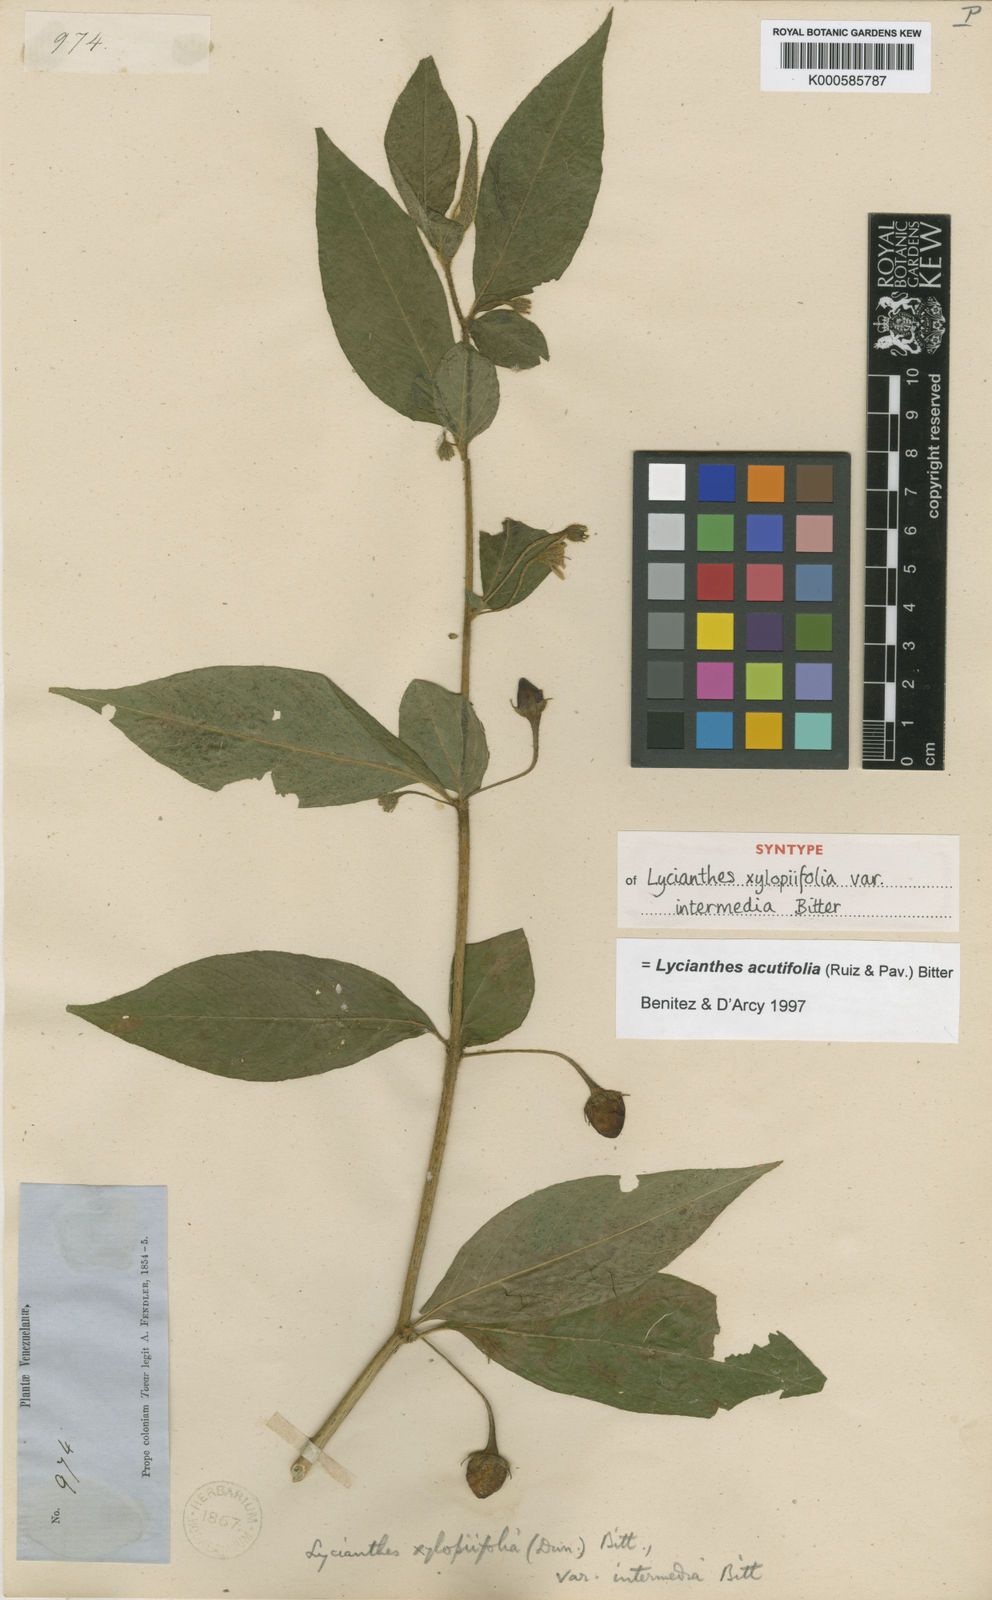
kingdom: Plantae
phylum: Tracheophyta
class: Magnoliopsida
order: Solanales
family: Solanaceae
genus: Lycianthes
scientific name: Lycianthes acutifolia
